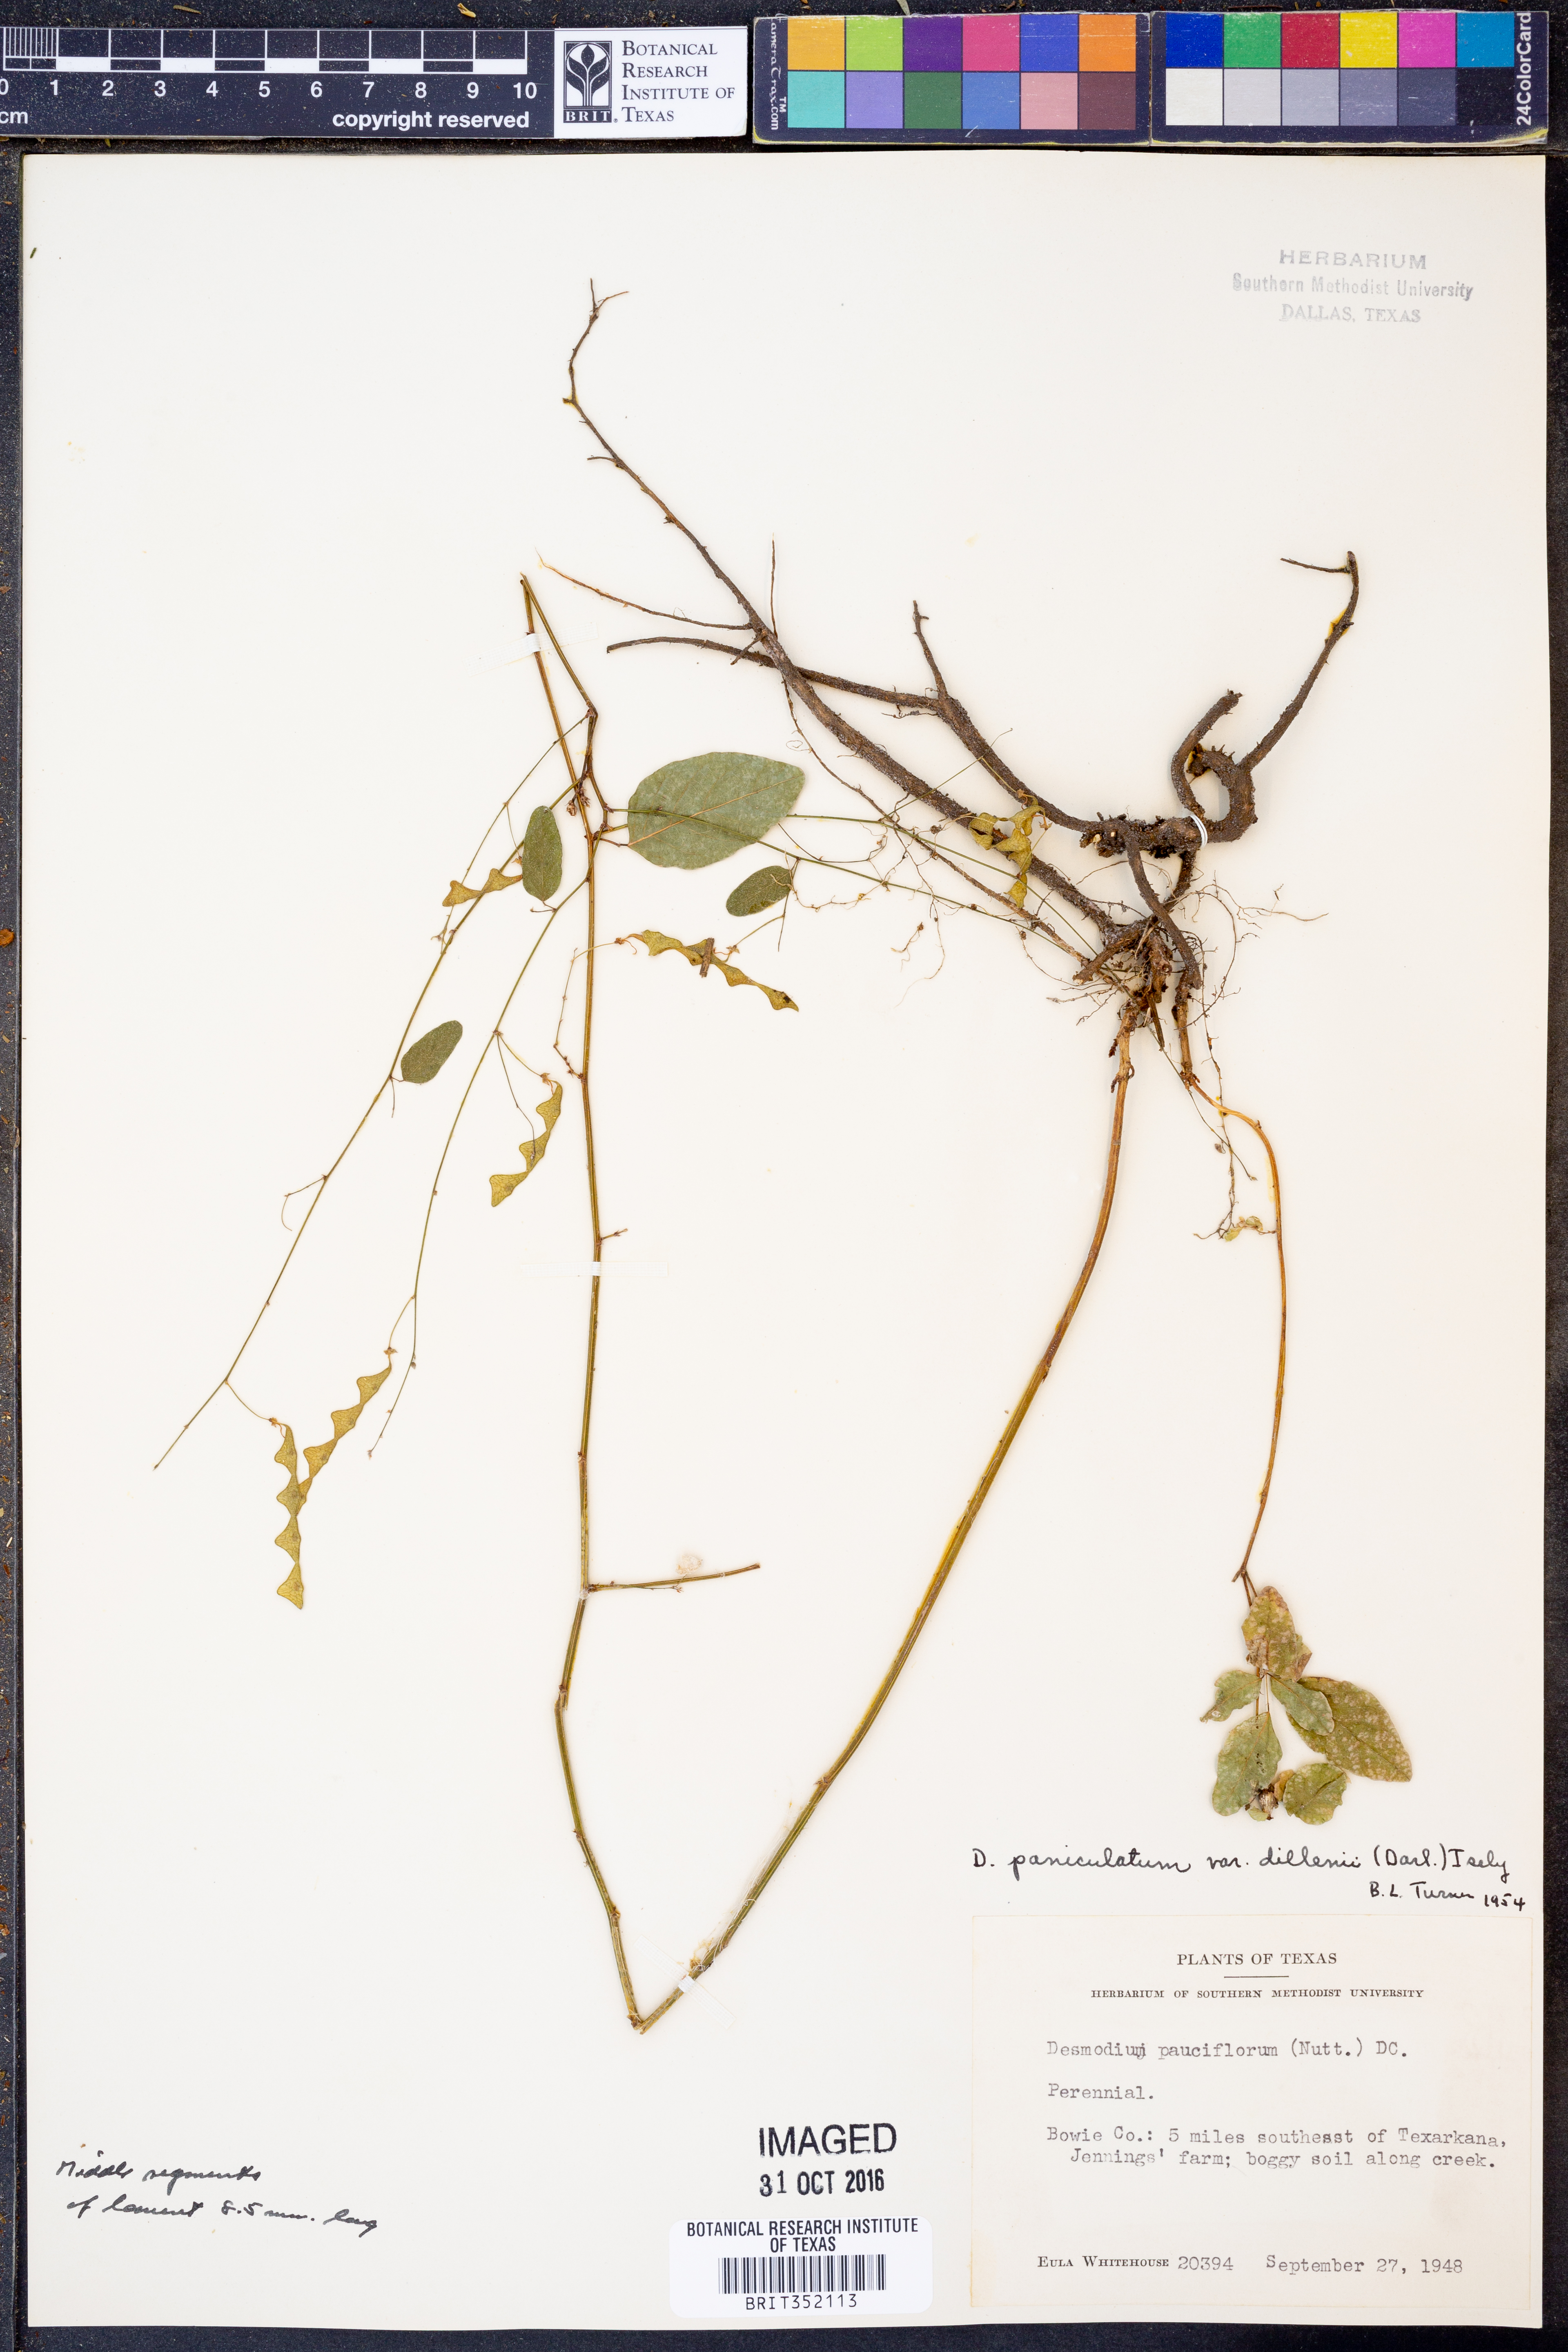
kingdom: Plantae
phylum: Tracheophyta
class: Magnoliopsida
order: Fabales
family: Fabaceae
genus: Hylodesmum
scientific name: Hylodesmum pauciflorum
